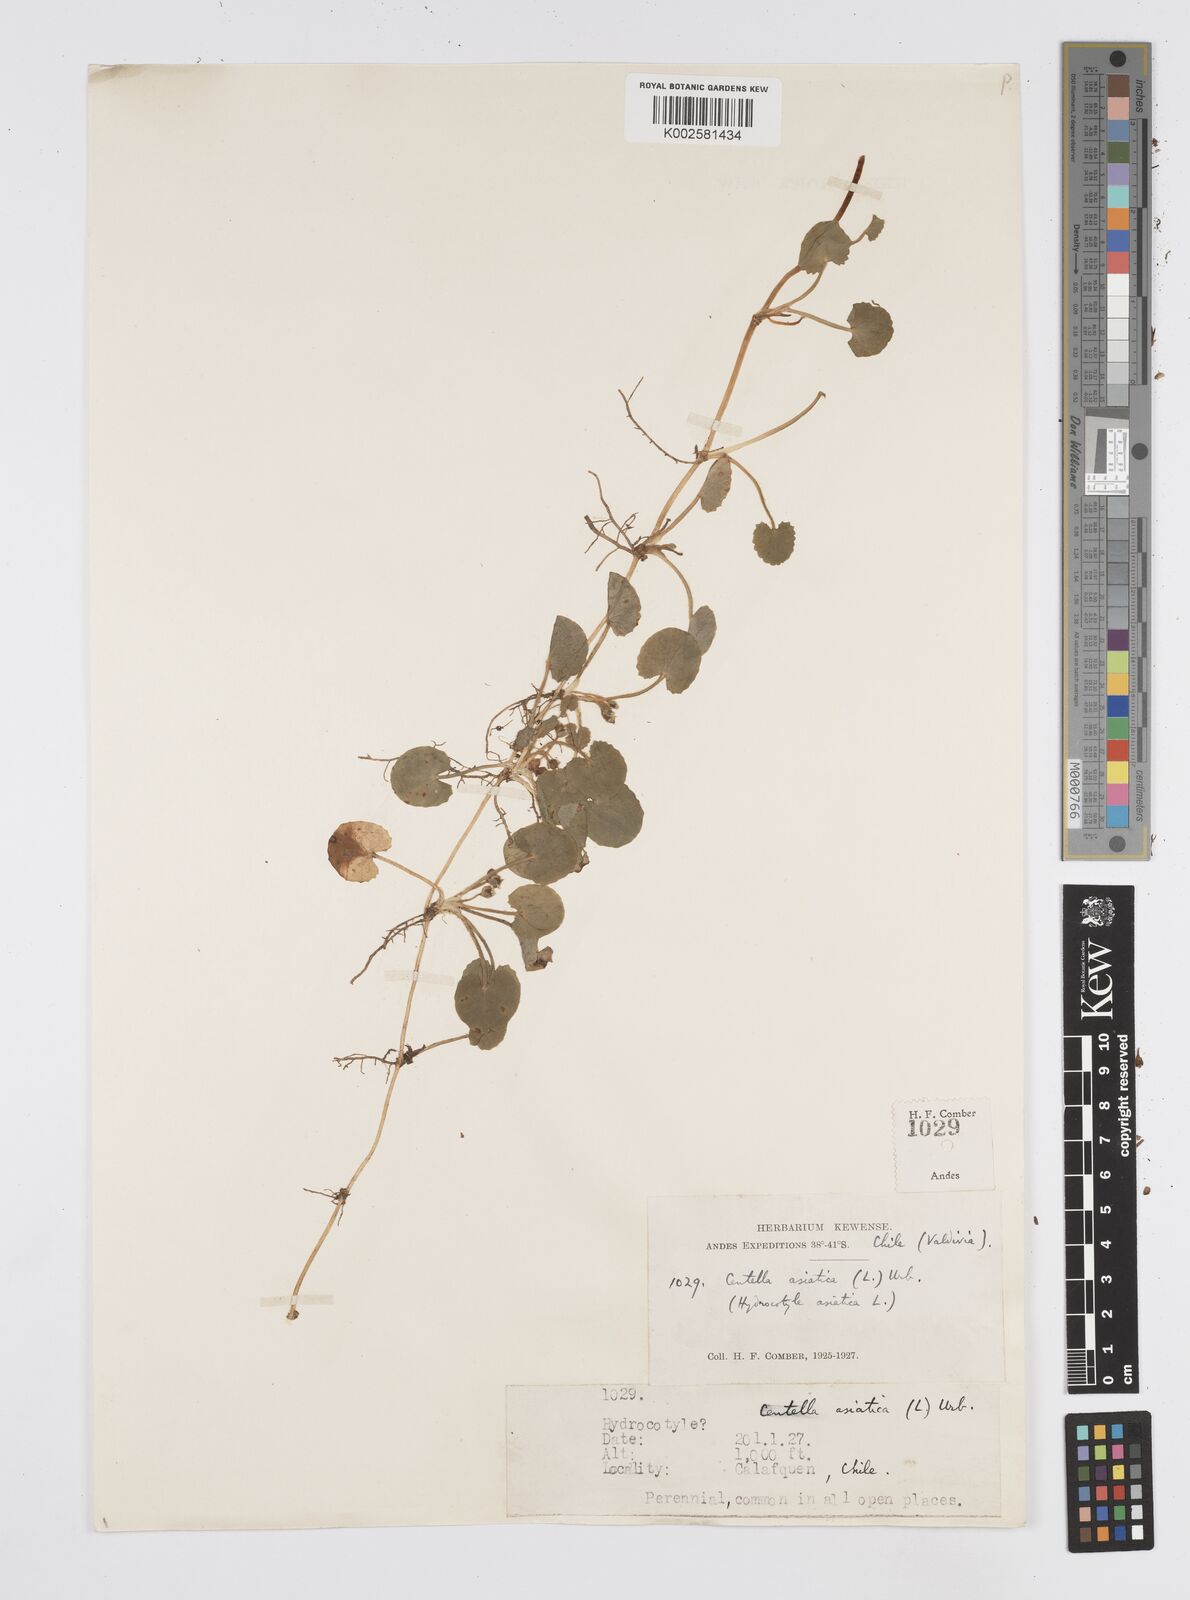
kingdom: Plantae
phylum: Tracheophyta
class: Magnoliopsida
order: Apiales
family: Apiaceae
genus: Centella
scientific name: Centella erecta
